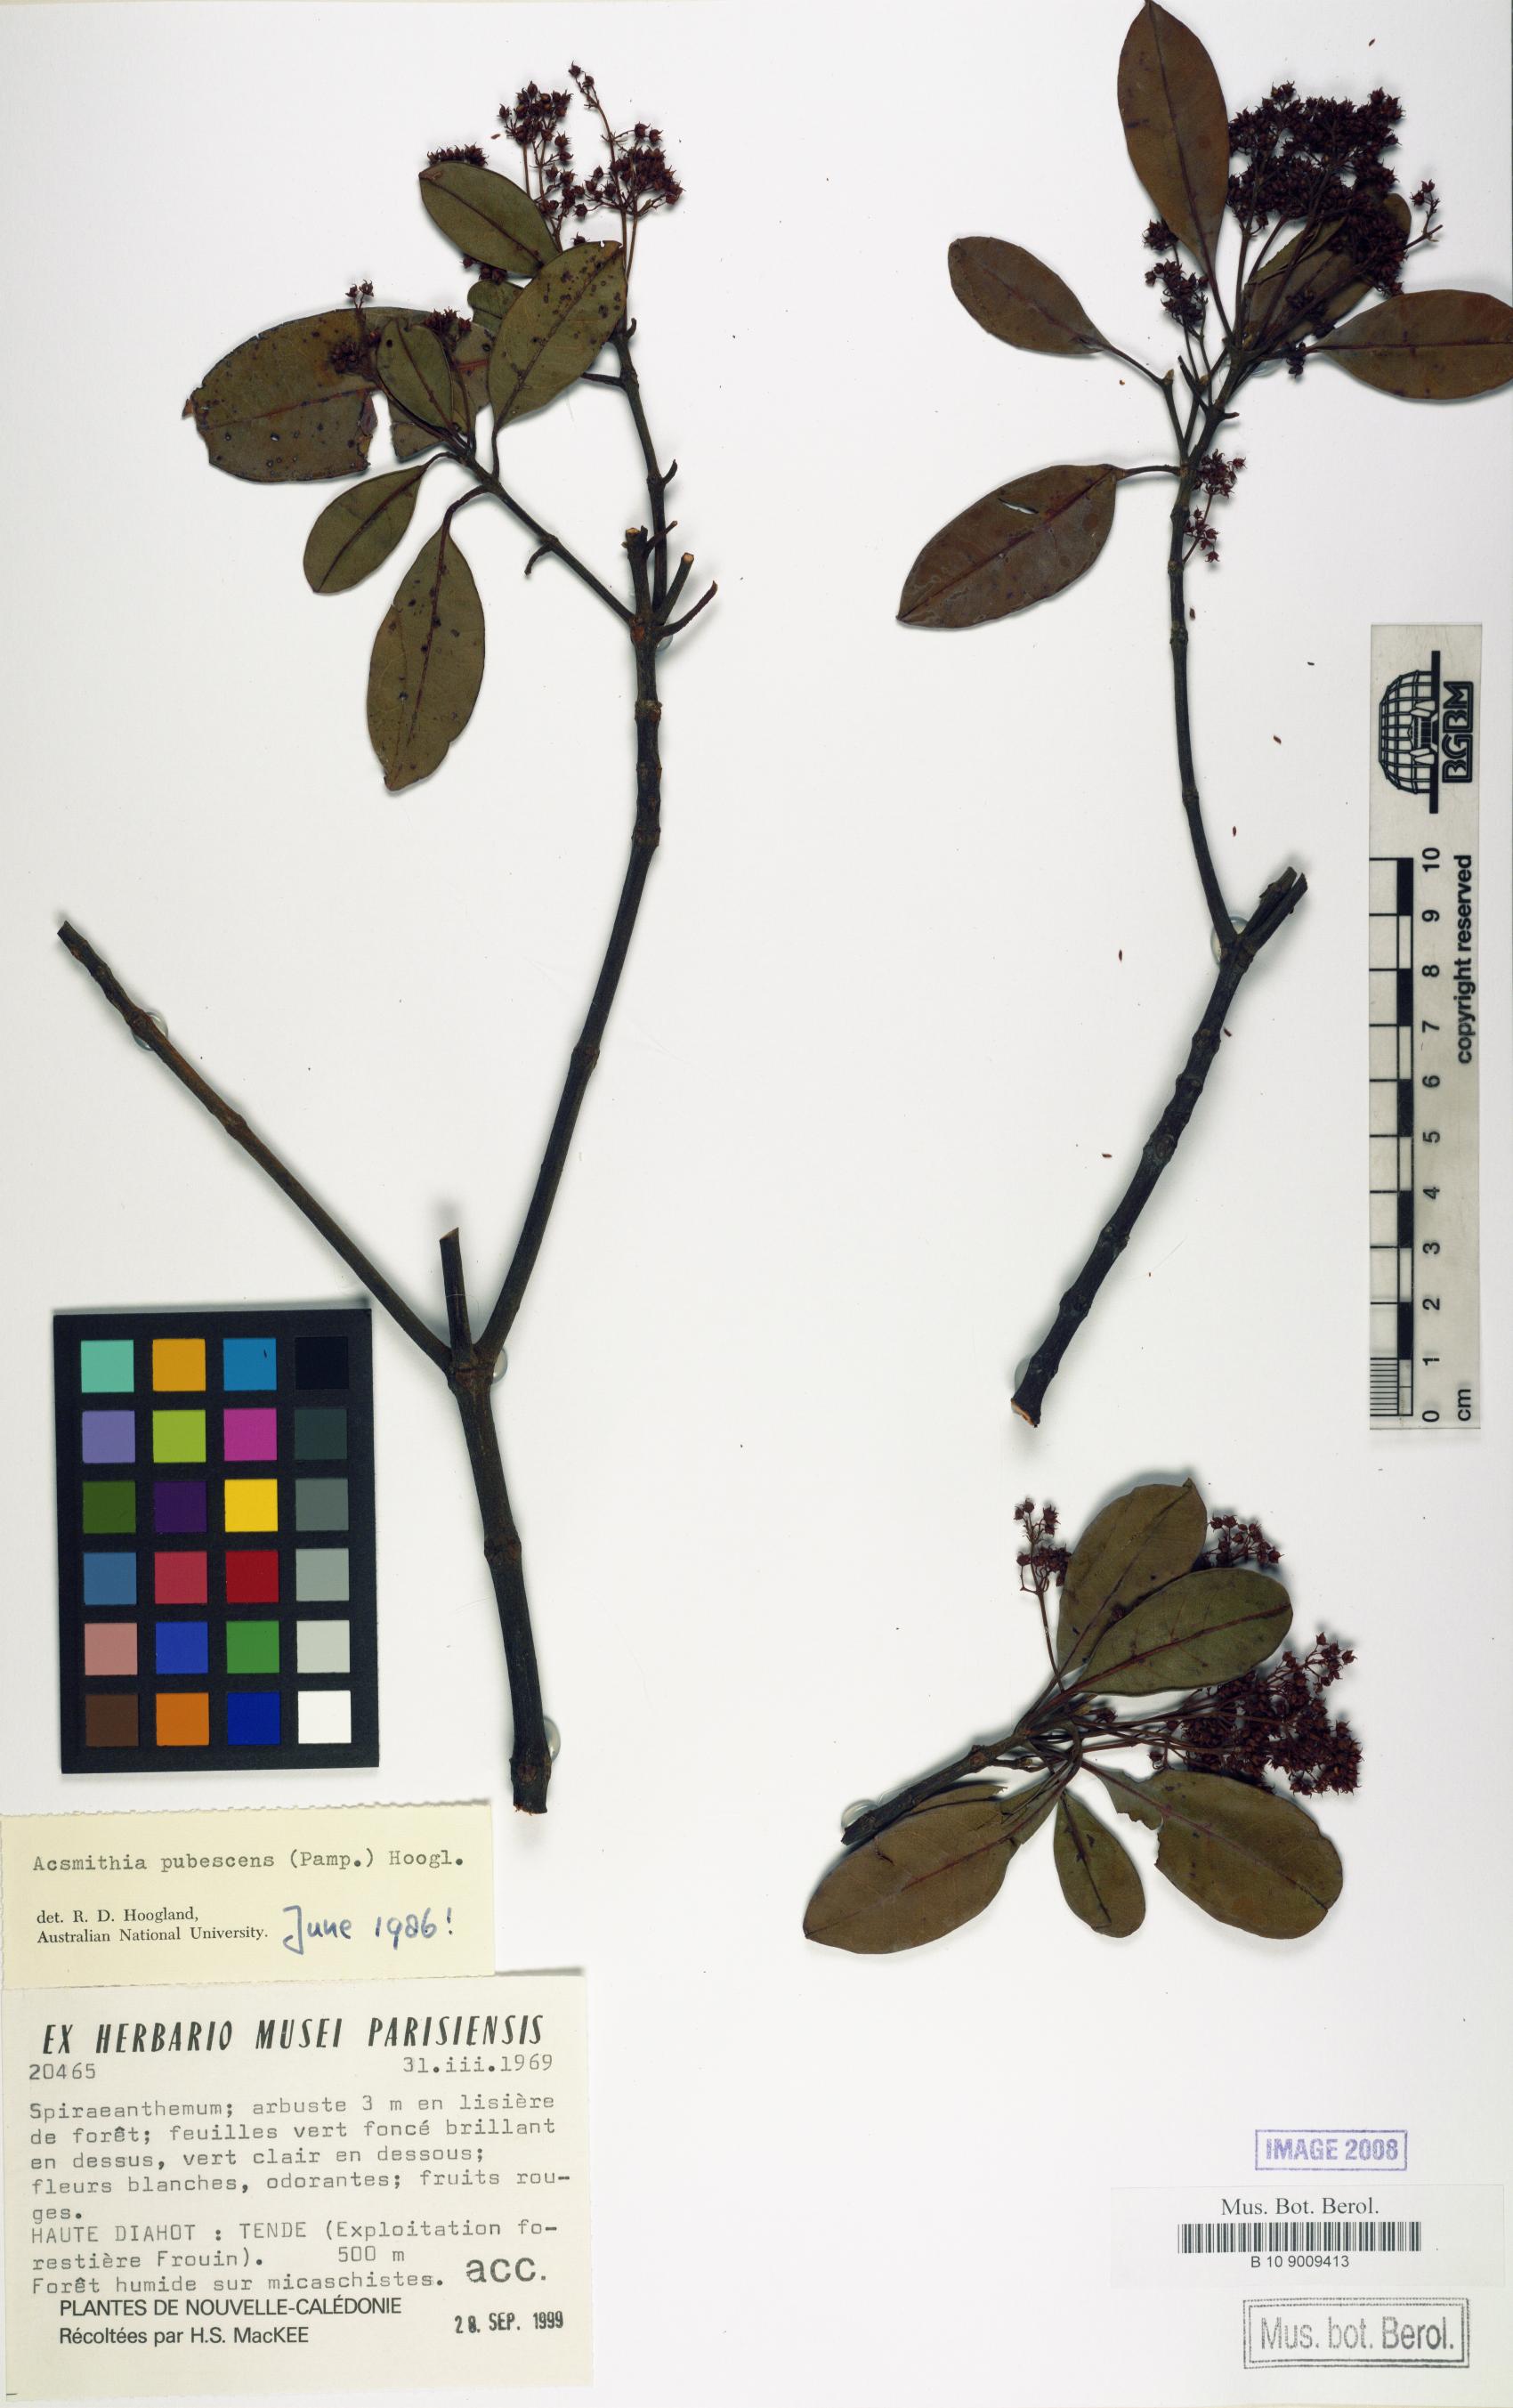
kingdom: Plantae
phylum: Tracheophyta
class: Magnoliopsida
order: Oxalidales
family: Cunoniaceae
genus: Spiraeanthemum
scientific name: Spiraeanthemum pubescens
